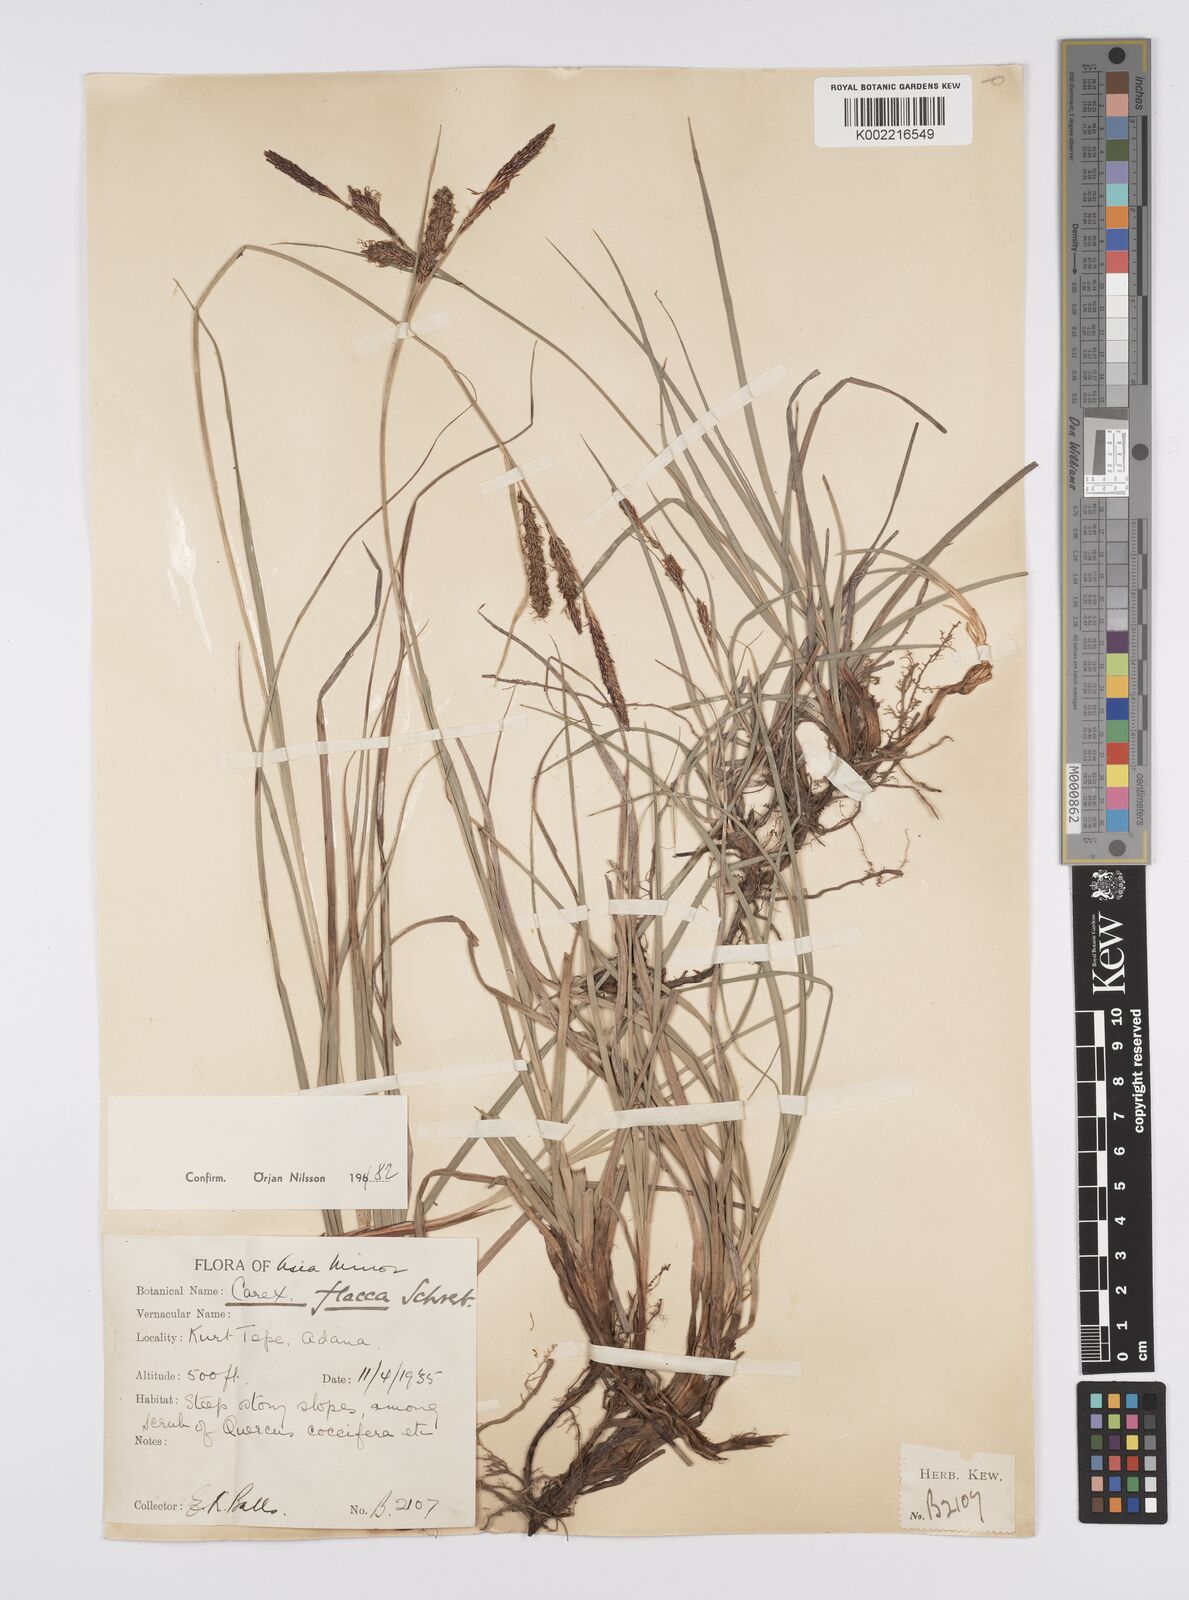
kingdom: Plantae
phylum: Tracheophyta
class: Liliopsida
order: Poales
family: Cyperaceae
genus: Carex
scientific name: Carex flacca
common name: Glaucous sedge
